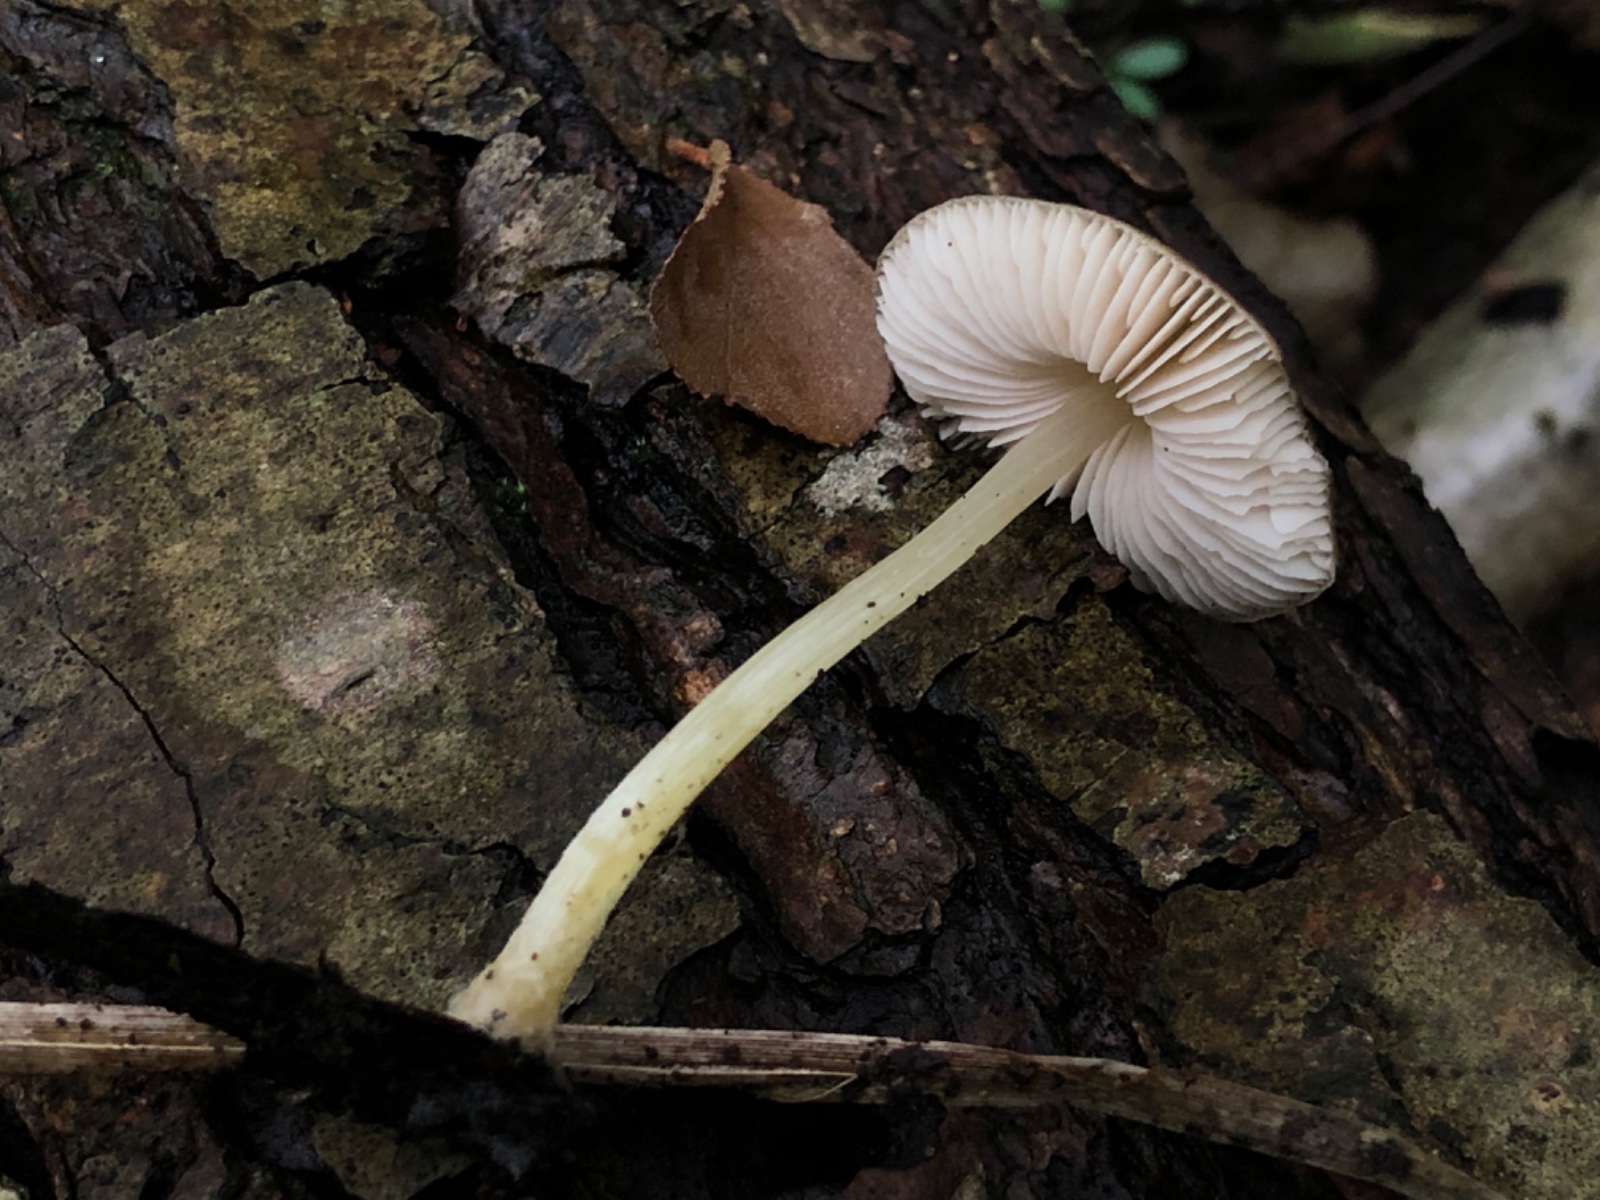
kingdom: Fungi
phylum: Basidiomycota
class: Agaricomycetes
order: Agaricales
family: Pluteaceae
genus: Pluteus
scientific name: Pluteus
